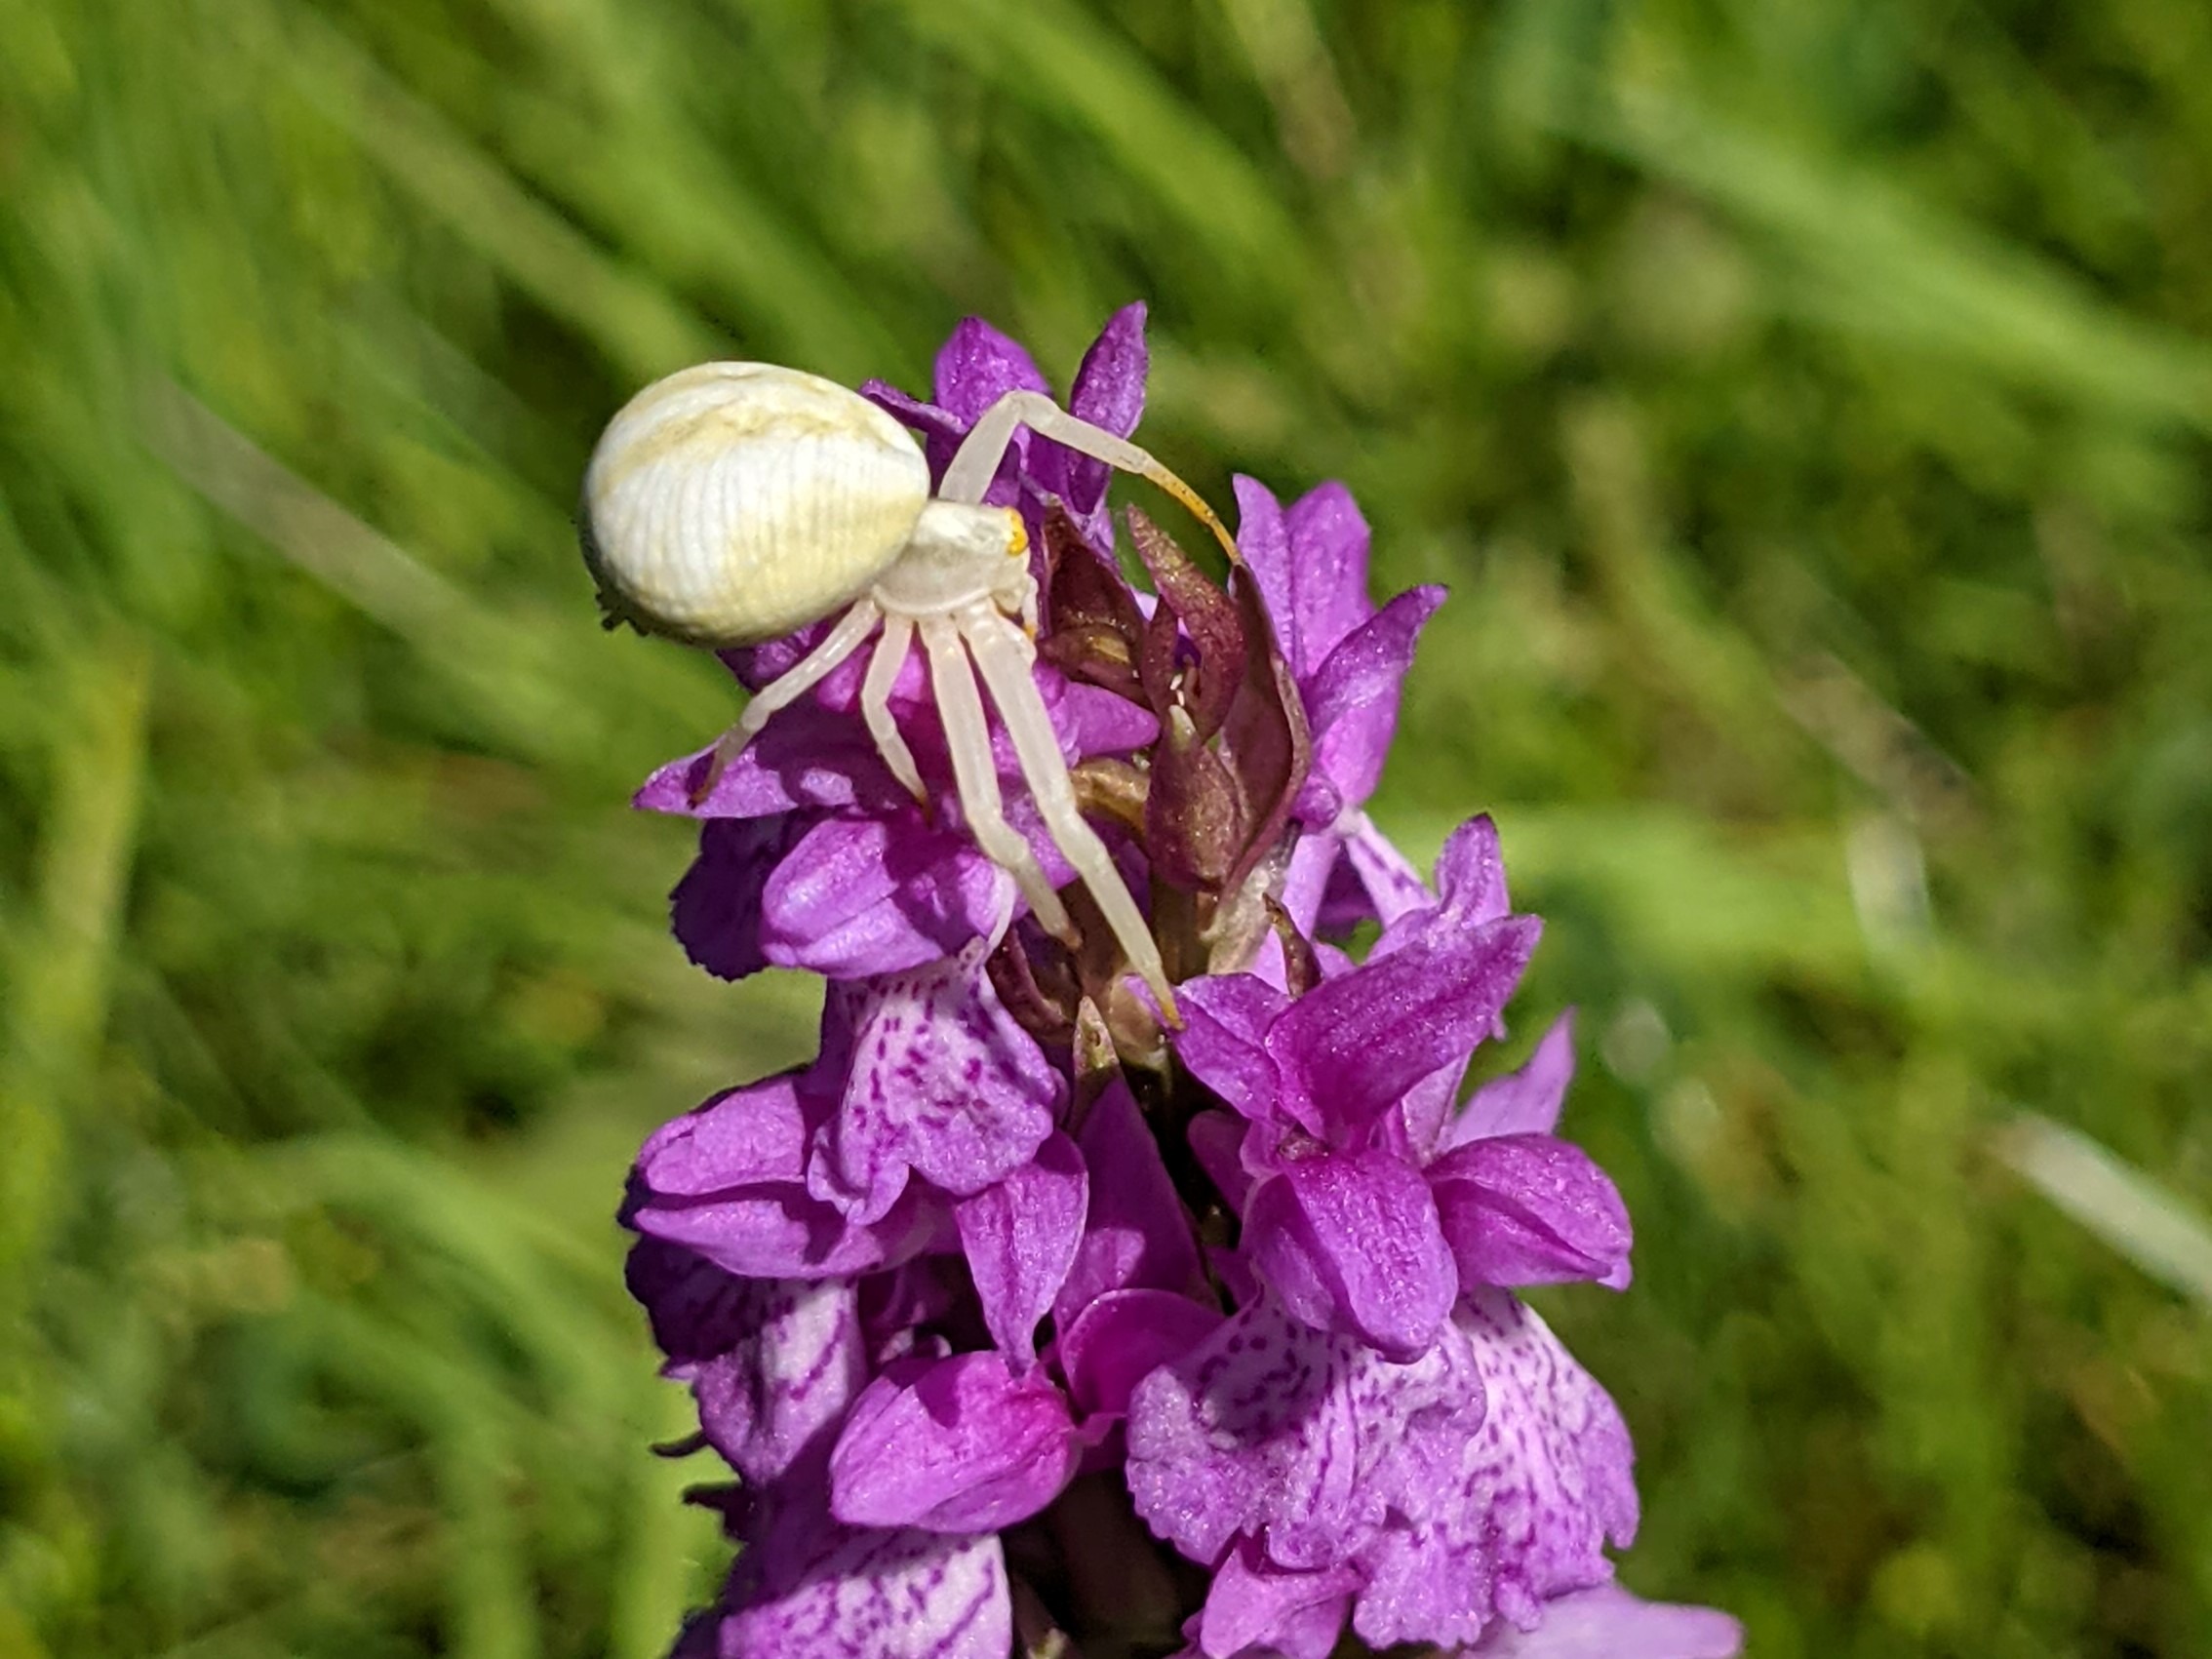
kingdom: Animalia
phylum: Arthropoda
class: Arachnida
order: Araneae
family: Thomisidae
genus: Misumena
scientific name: Misumena vatia
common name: Kamæleonedderkop
